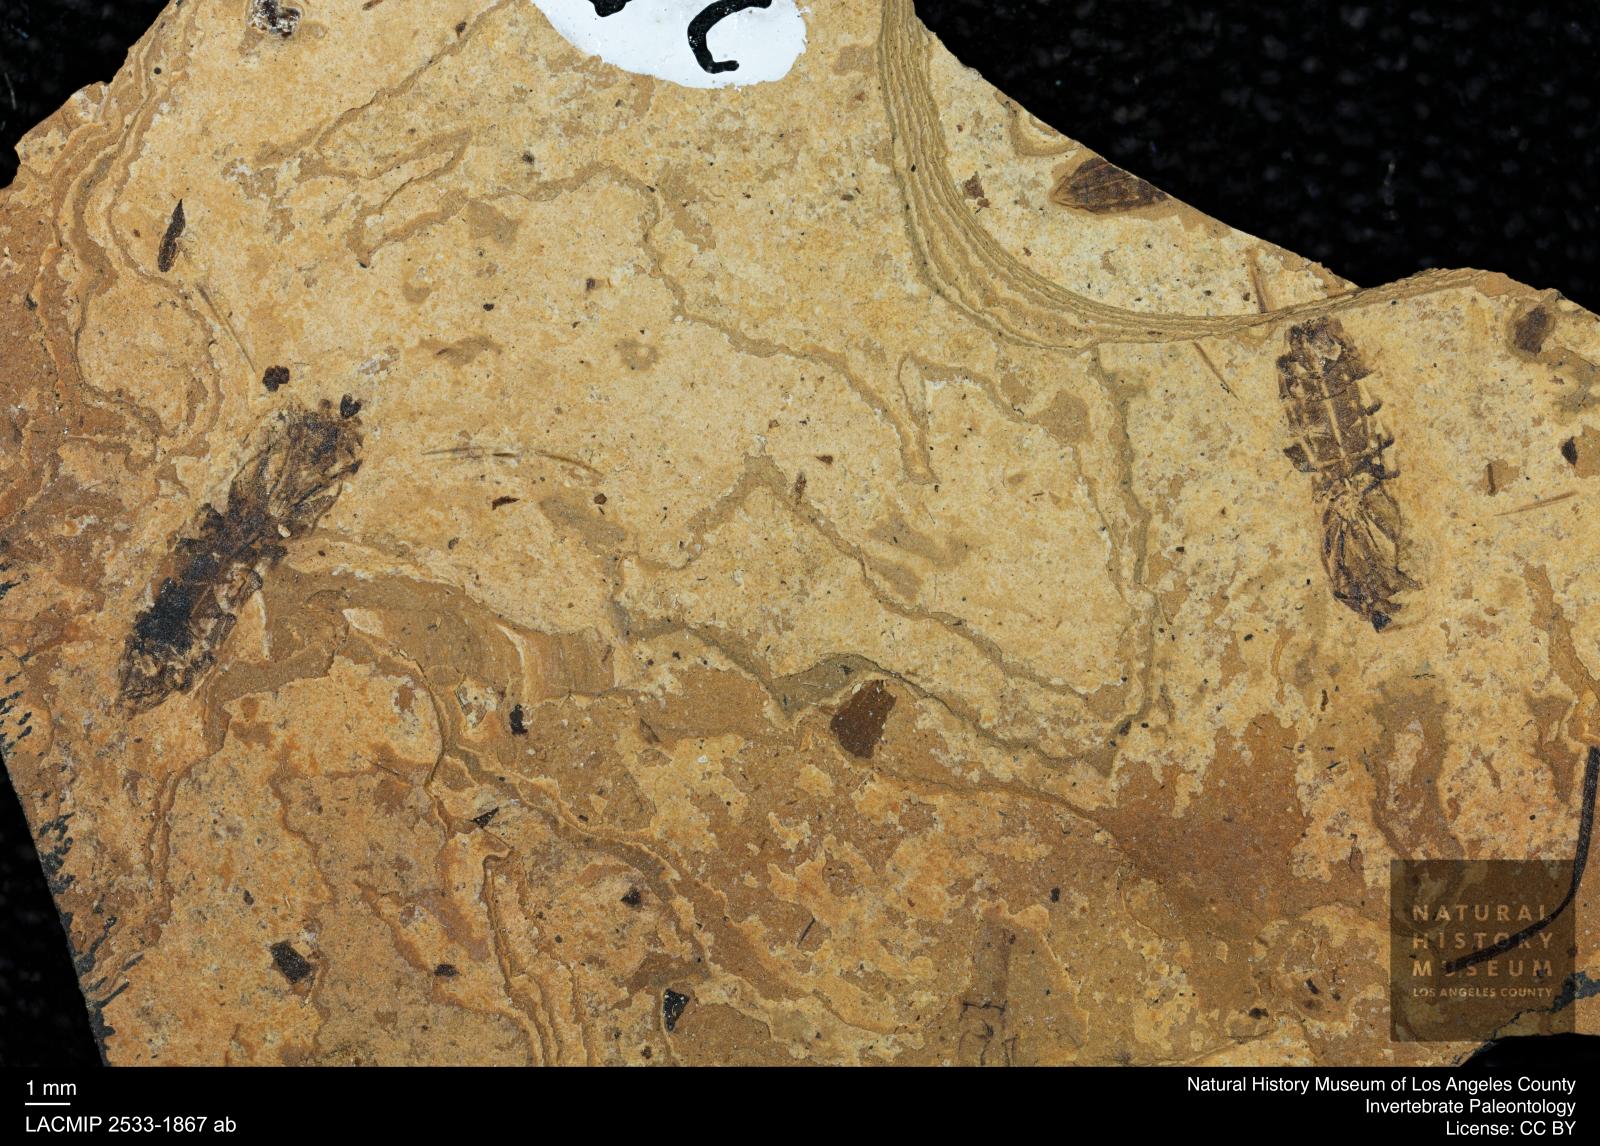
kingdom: Animalia
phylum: Arthropoda
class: Insecta
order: Hemiptera
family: Notonectidae
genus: Notonecta
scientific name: Notonecta
